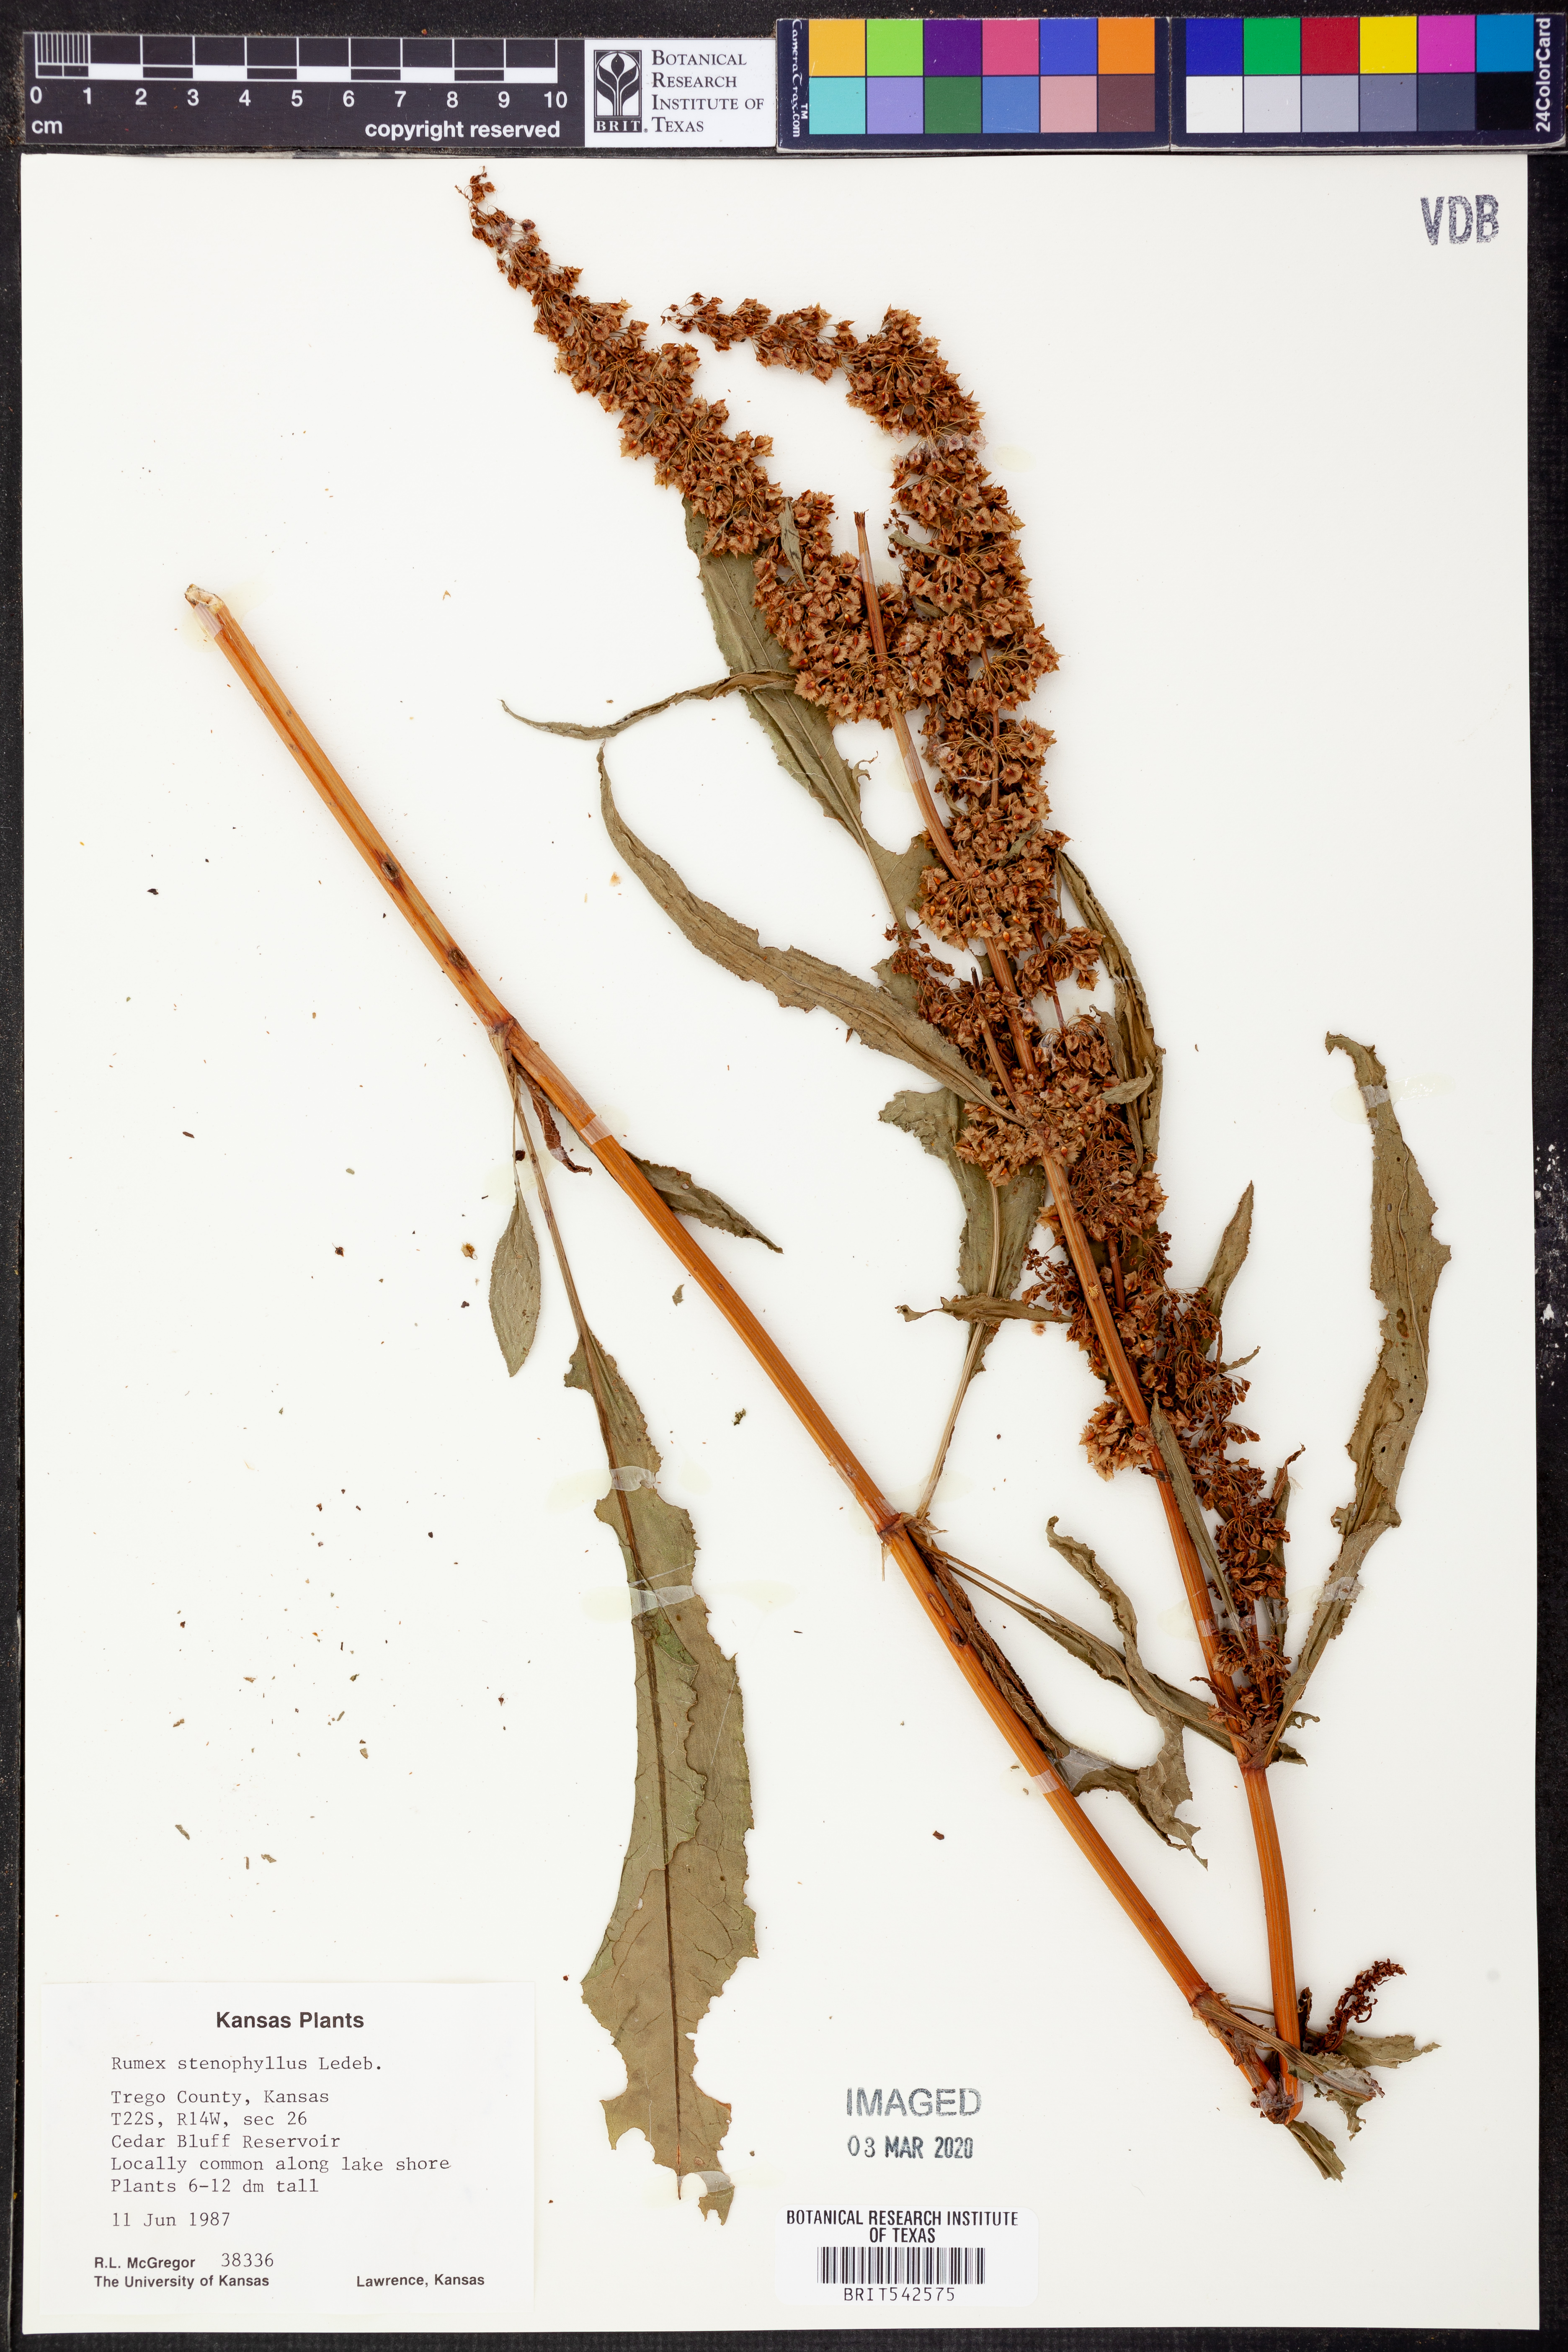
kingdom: Plantae
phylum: Tracheophyta
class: Magnoliopsida
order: Caryophyllales
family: Polygonaceae
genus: Rumex
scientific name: Rumex stenophyllus
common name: Narrowleaf dock
